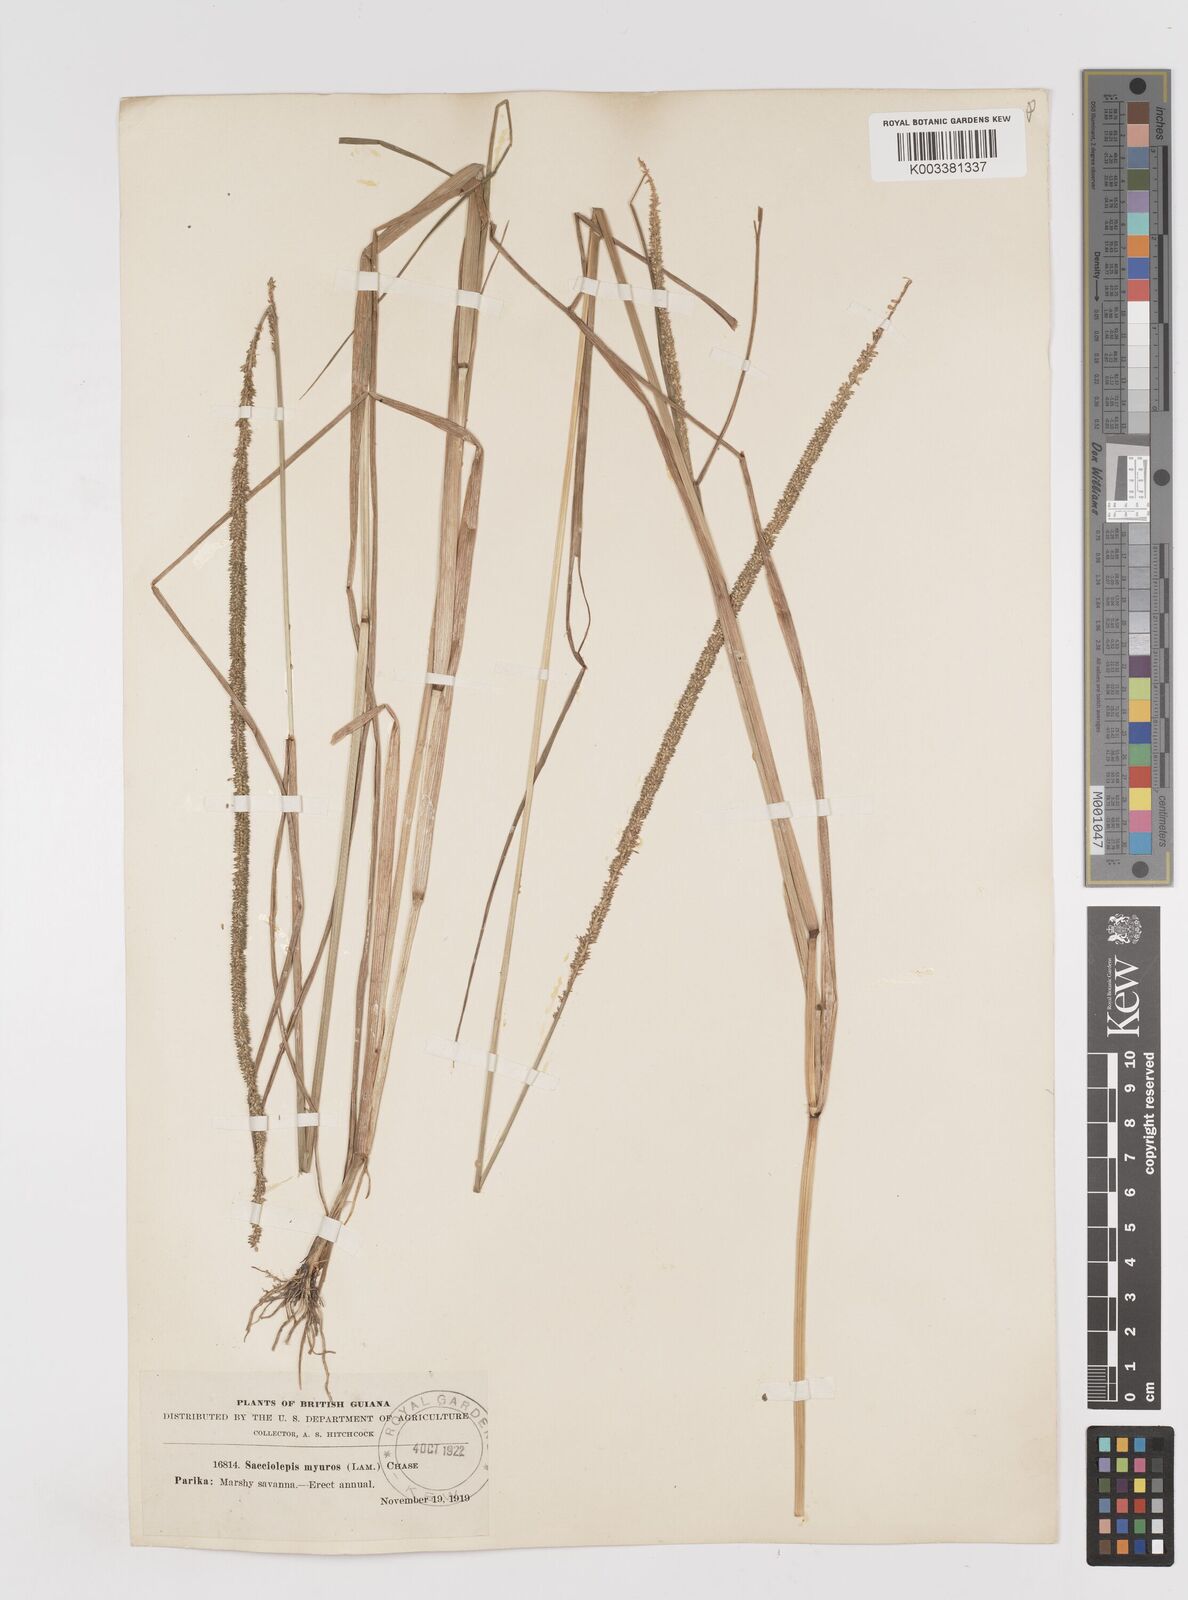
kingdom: Plantae
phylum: Tracheophyta
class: Liliopsida
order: Poales
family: Poaceae
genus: Sacciolepis
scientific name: Sacciolepis myuros
